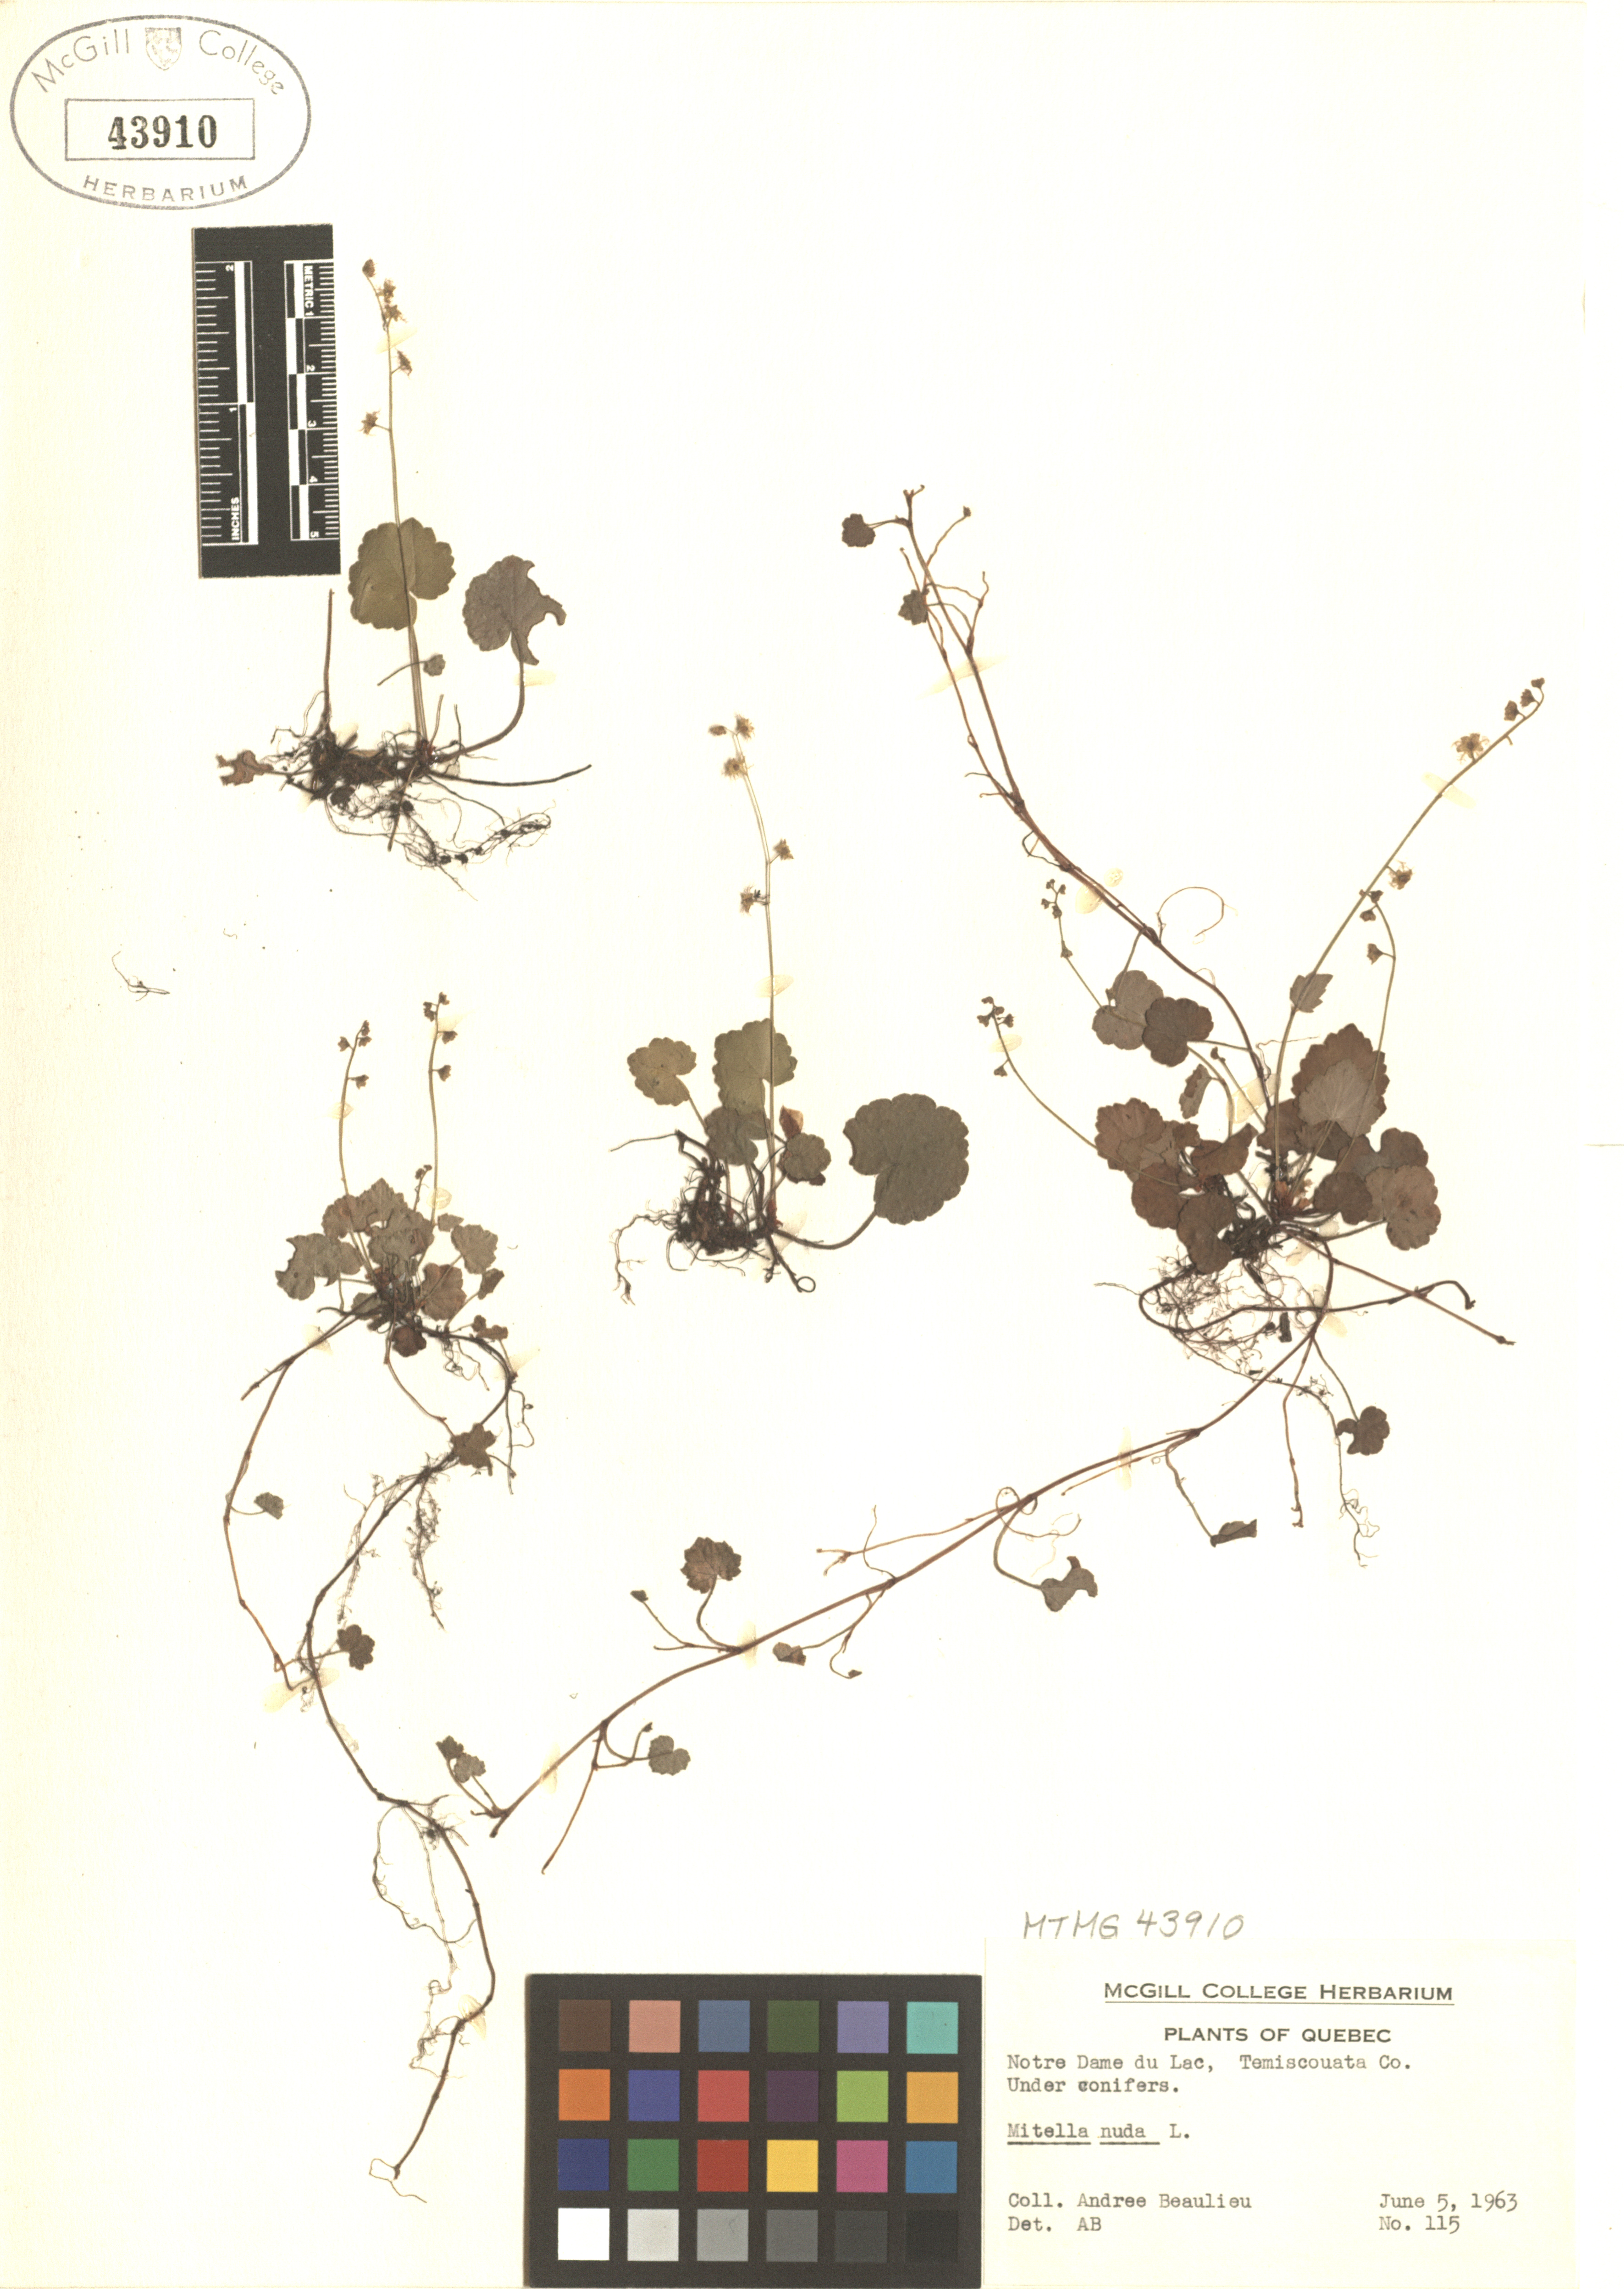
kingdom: Plantae
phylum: Tracheophyta
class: Magnoliopsida
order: Saxifragales
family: Saxifragaceae
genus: Mitella
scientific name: Mitella nuda
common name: Bare-stemmed bishop's-cap
